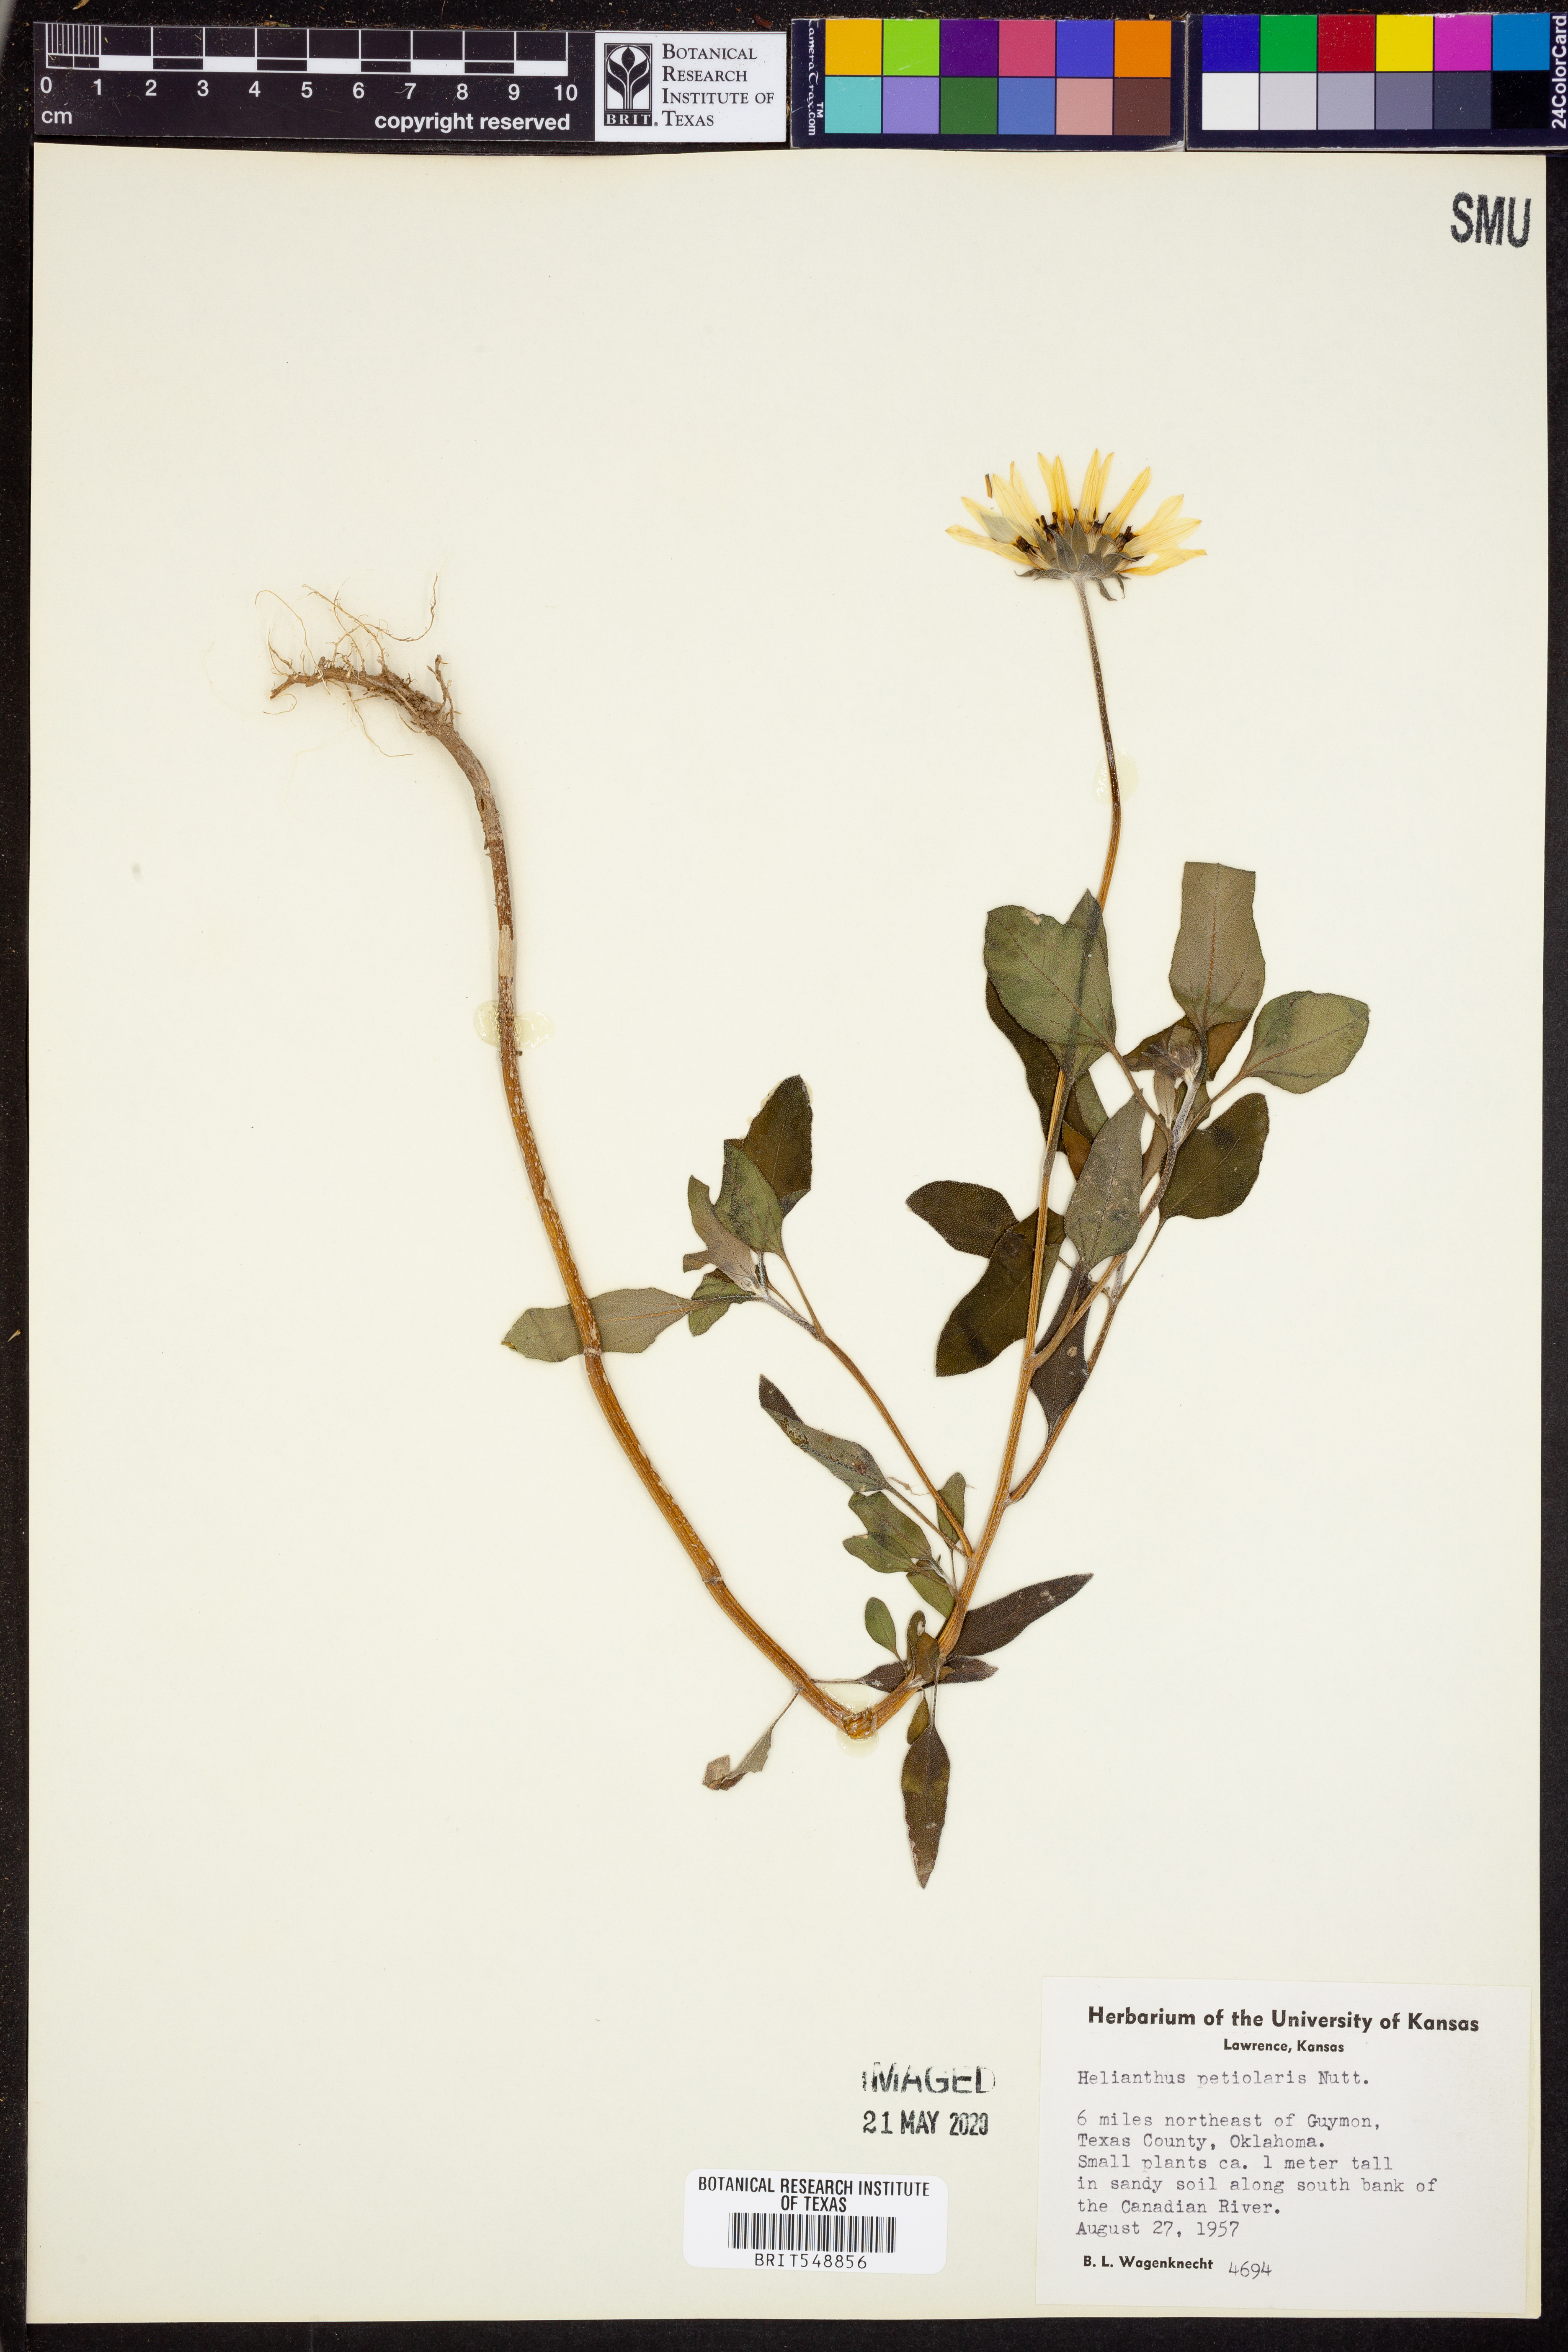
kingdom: Plantae
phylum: Tracheophyta
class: Magnoliopsida
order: Asterales
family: Asteraceae
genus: Helianthus
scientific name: Helianthus petiolaris
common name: Lesser sunflower
